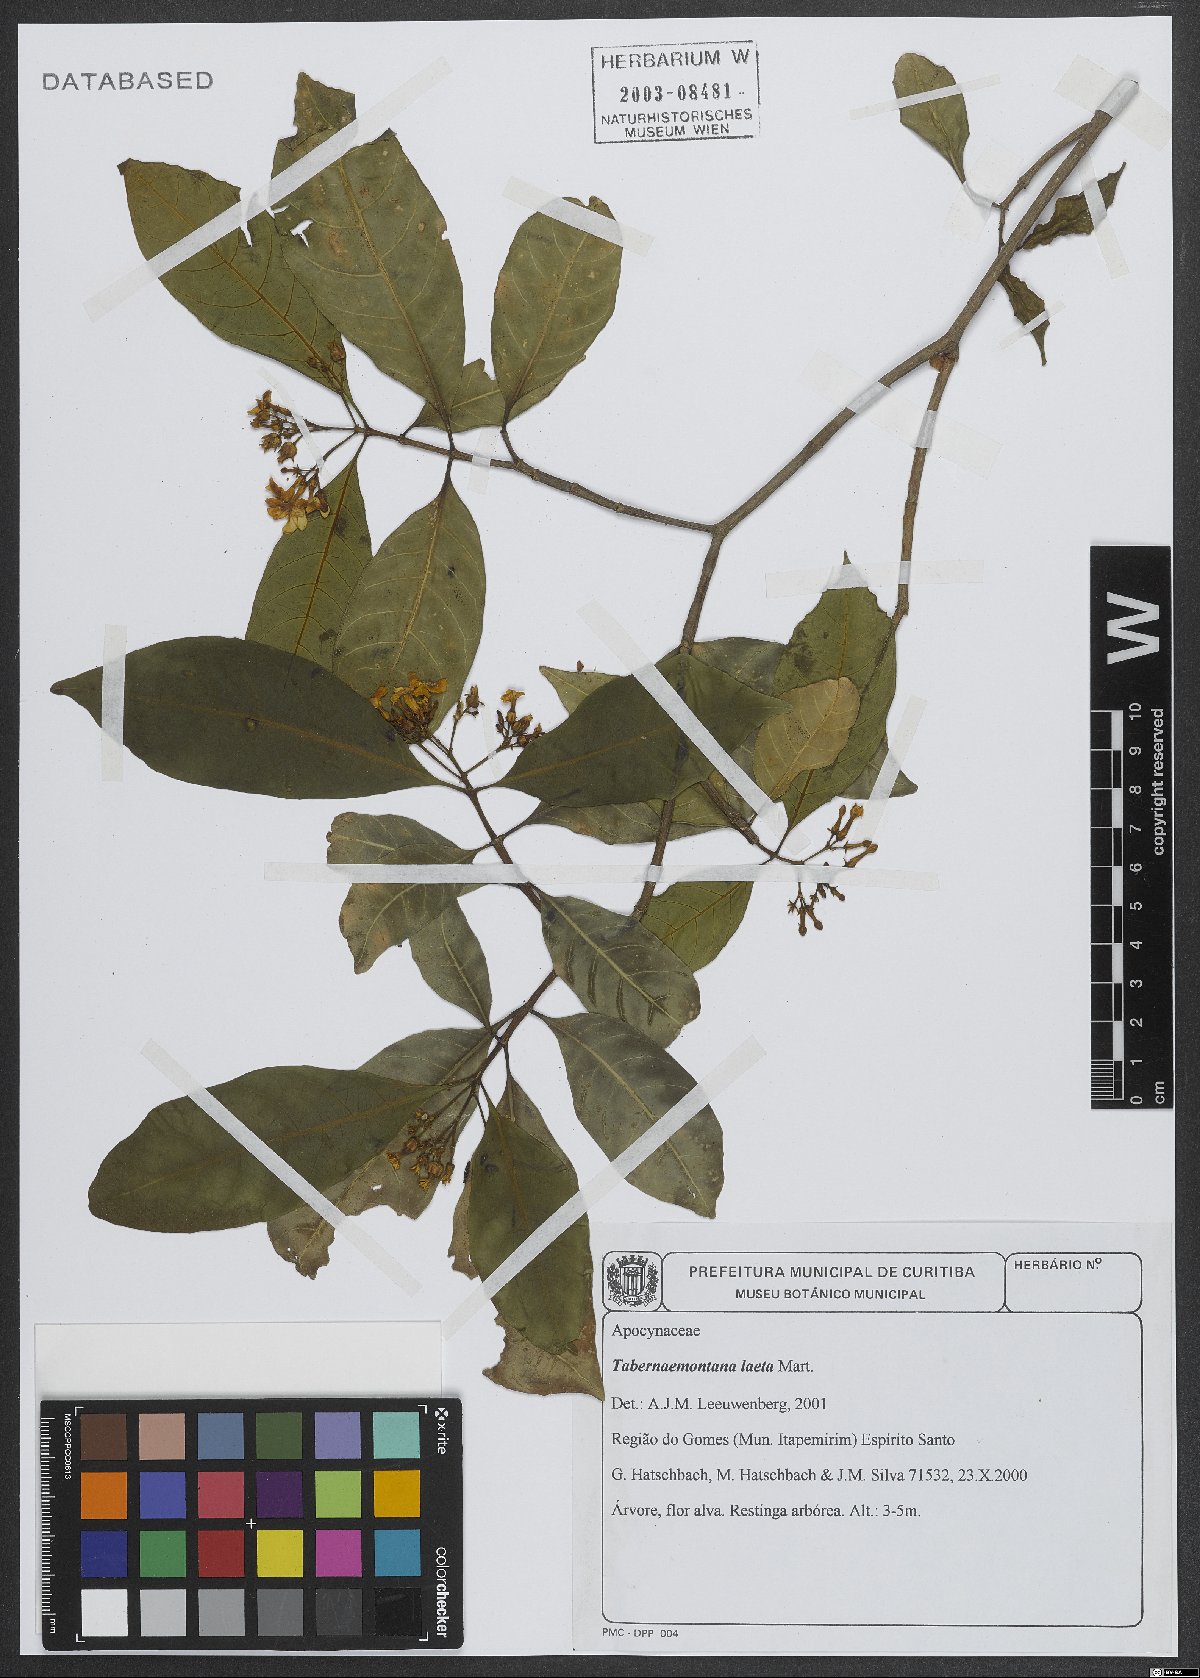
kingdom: Plantae
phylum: Tracheophyta
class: Magnoliopsida
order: Gentianales
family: Apocynaceae
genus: Tabernaemontana
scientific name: Tabernaemontana laeta
